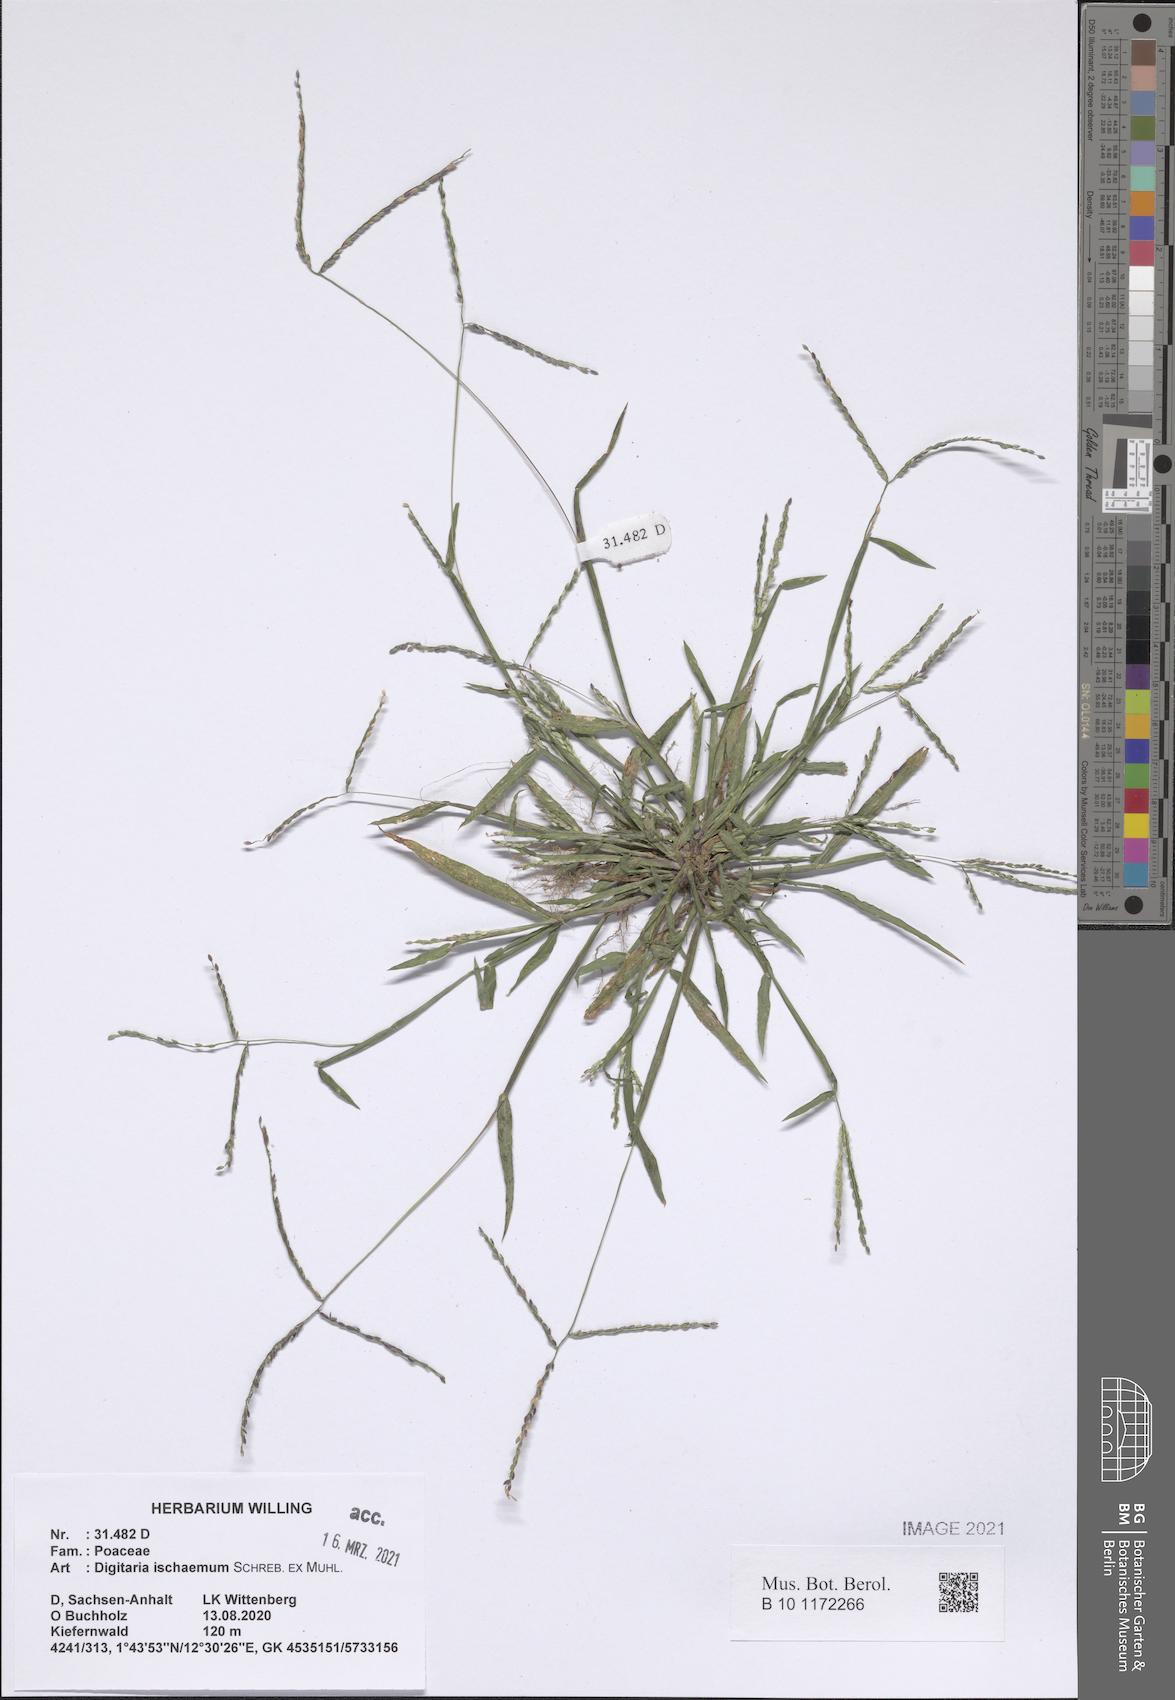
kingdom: Plantae
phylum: Tracheophyta
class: Liliopsida
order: Poales
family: Poaceae
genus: Digitaria
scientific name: Digitaria ischaemum
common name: Smooth crabgrass
